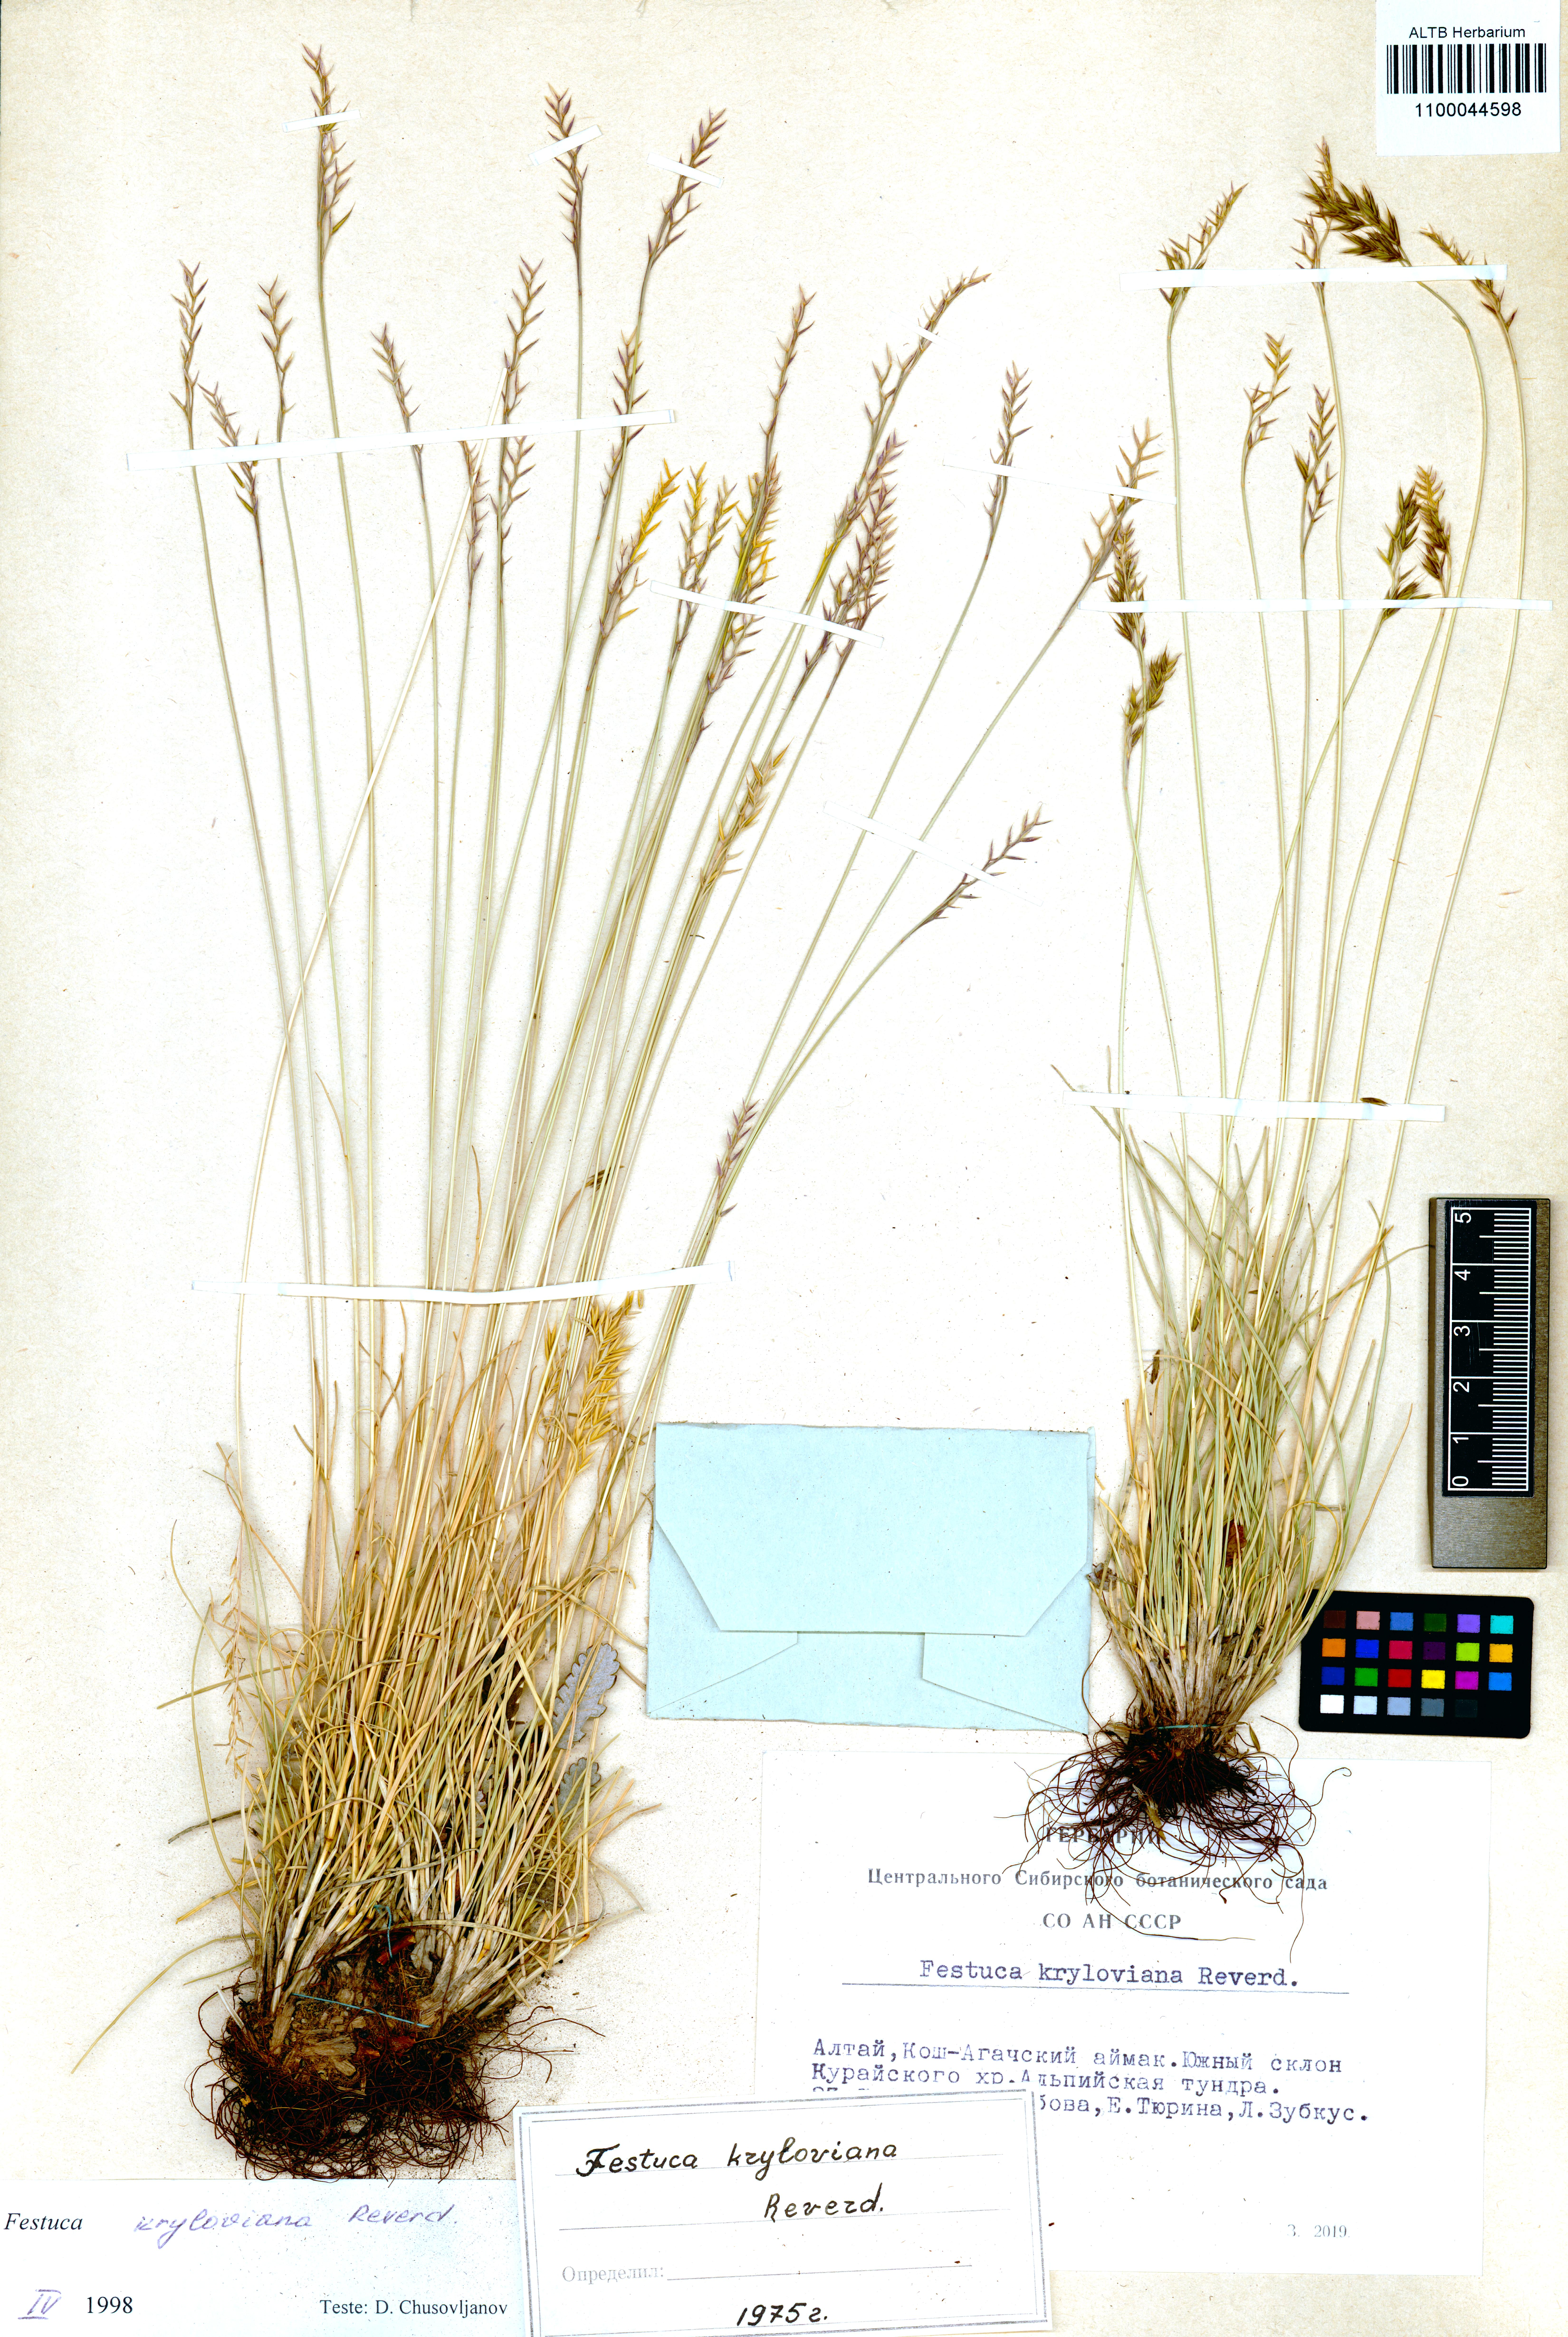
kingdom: Plantae
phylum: Tracheophyta
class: Liliopsida
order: Poales
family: Poaceae
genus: Festuca
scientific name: Festuca kryloviana
